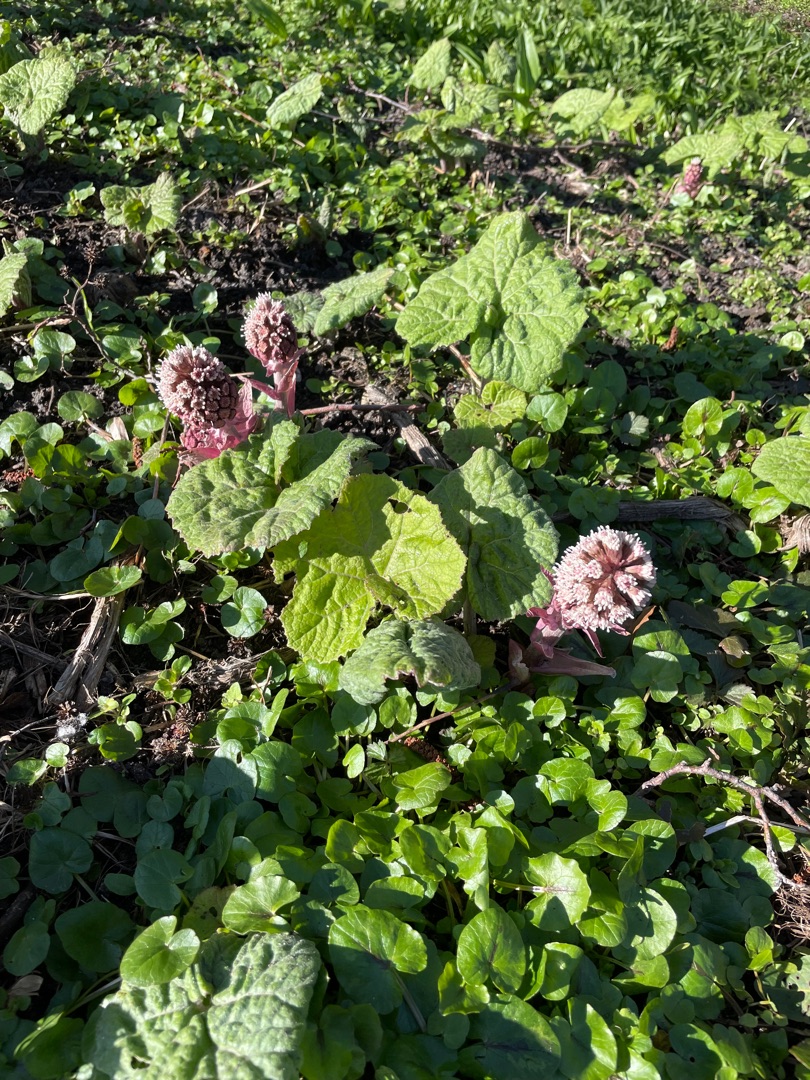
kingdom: Plantae
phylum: Tracheophyta
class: Magnoliopsida
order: Asterales
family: Asteraceae
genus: Petasites
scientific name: Petasites hybridus
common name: Rød hestehov
